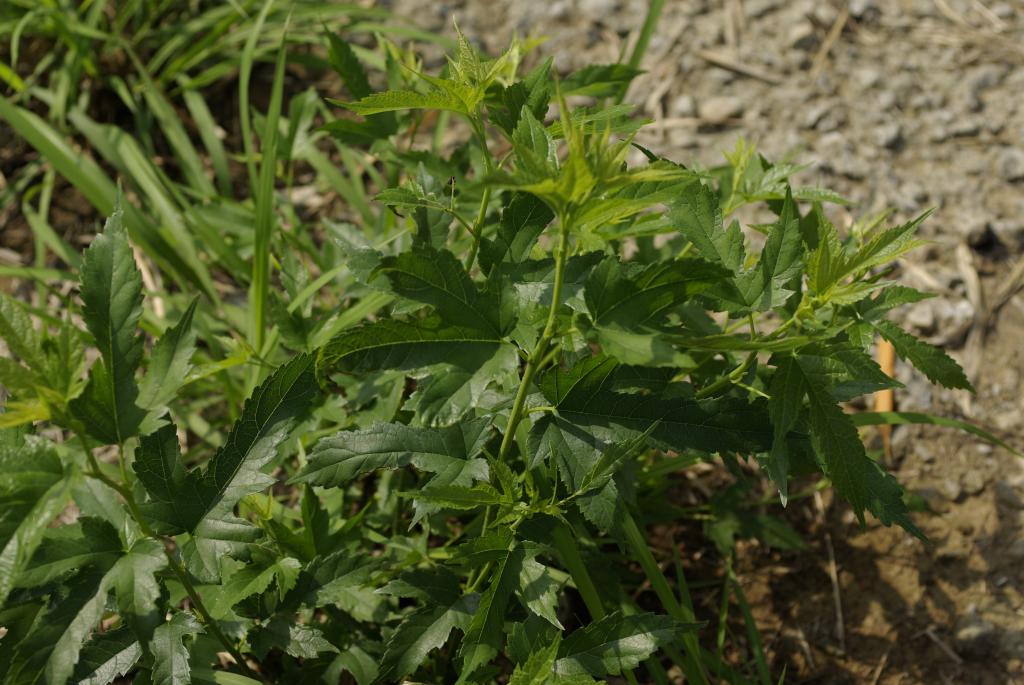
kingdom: Plantae
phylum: Tracheophyta
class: Magnoliopsida
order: Rosales
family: Moraceae
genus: Broussonetia
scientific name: Broussonetia papyrifera
